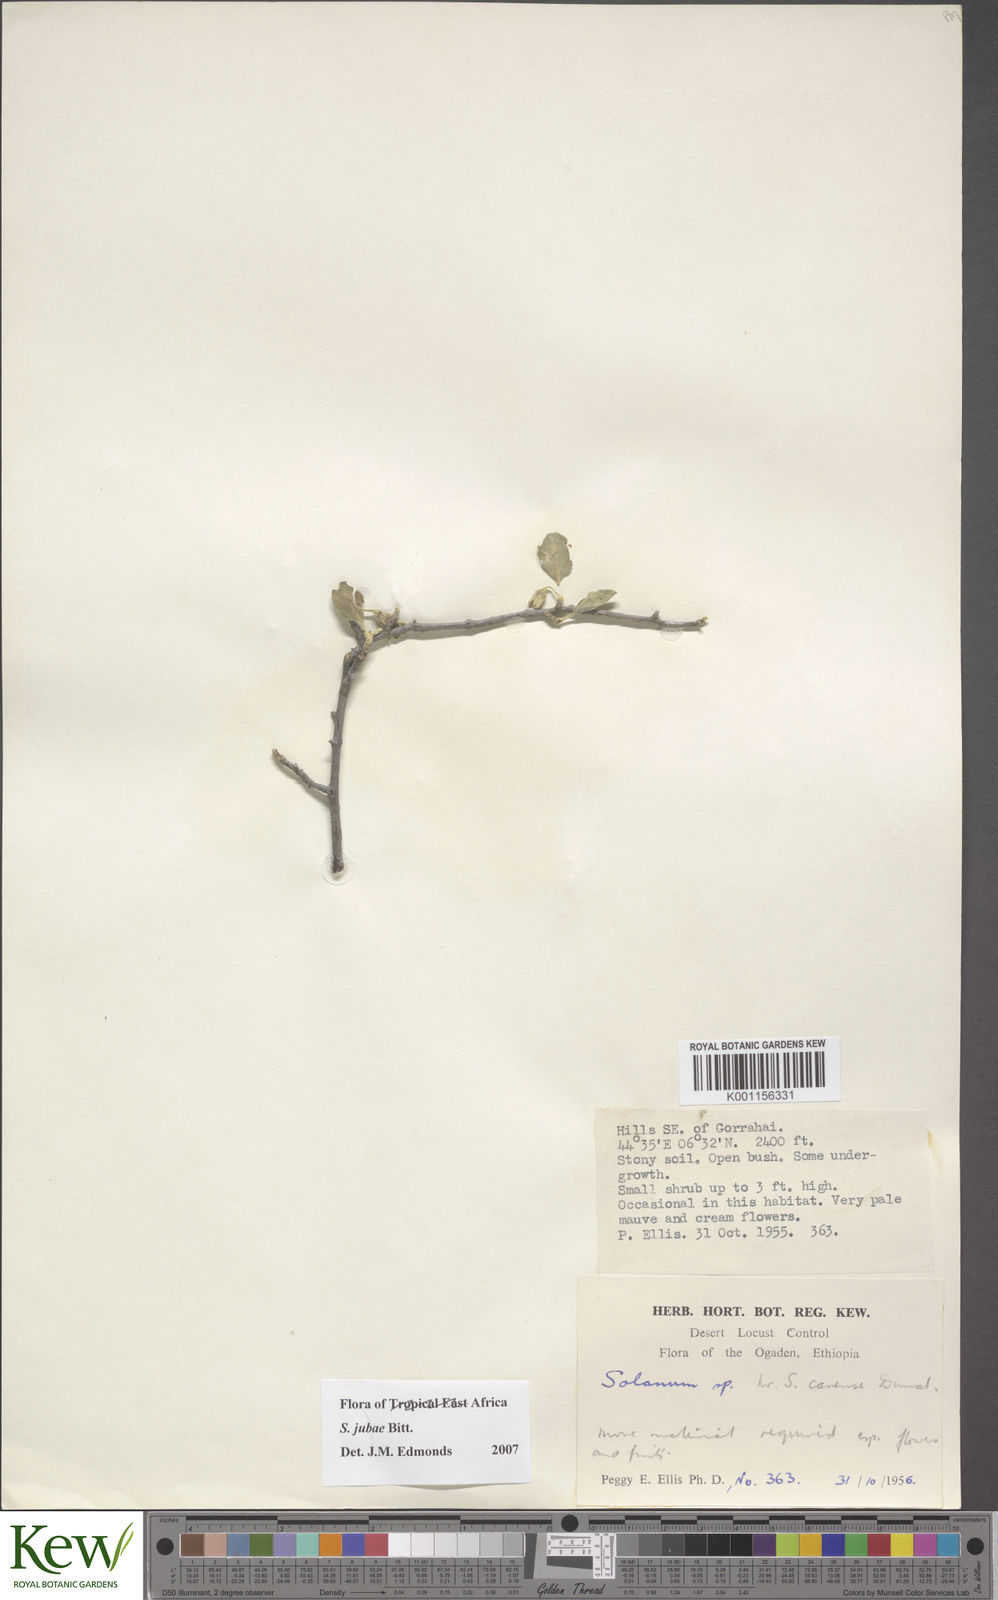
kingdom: Plantae
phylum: Tracheophyta
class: Magnoliopsida
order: Solanales
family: Solanaceae
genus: Solanum
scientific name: Solanum jubae
